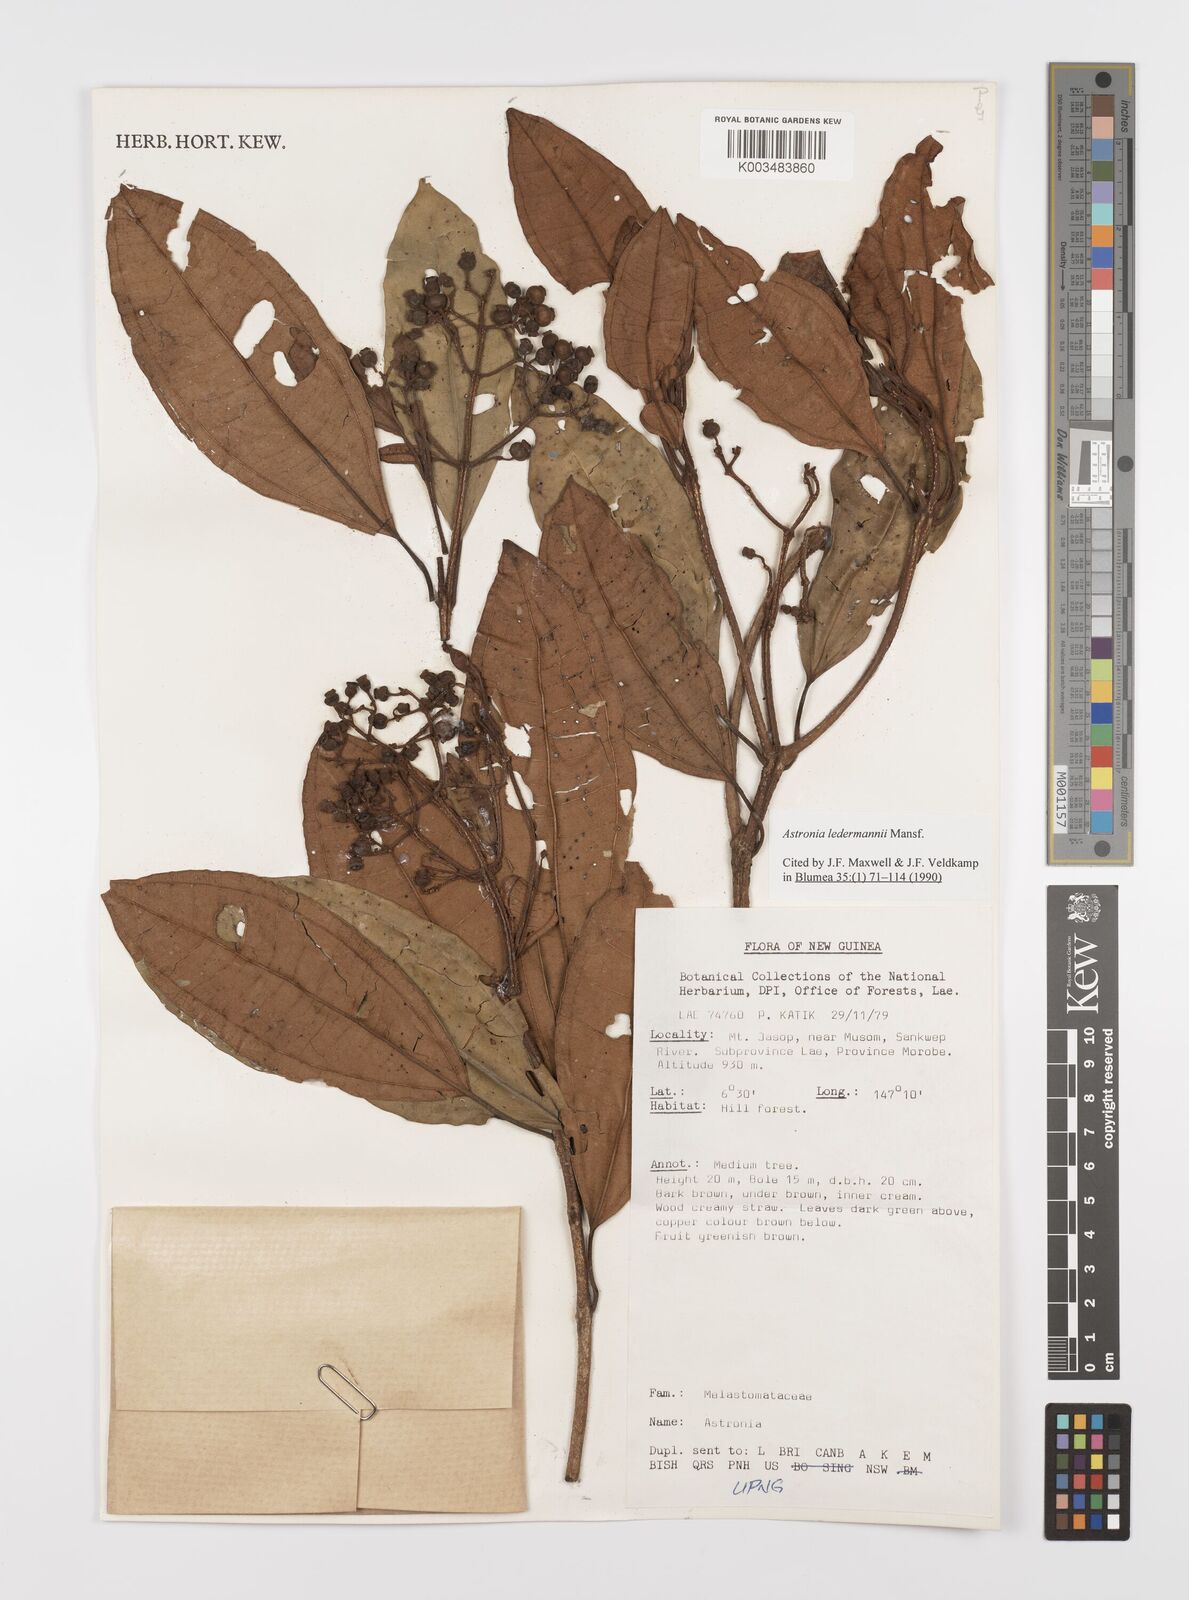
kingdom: Plantae
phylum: Tracheophyta
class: Magnoliopsida
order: Myrtales
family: Melastomataceae
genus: Astronia
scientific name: Astronia ledermannii
